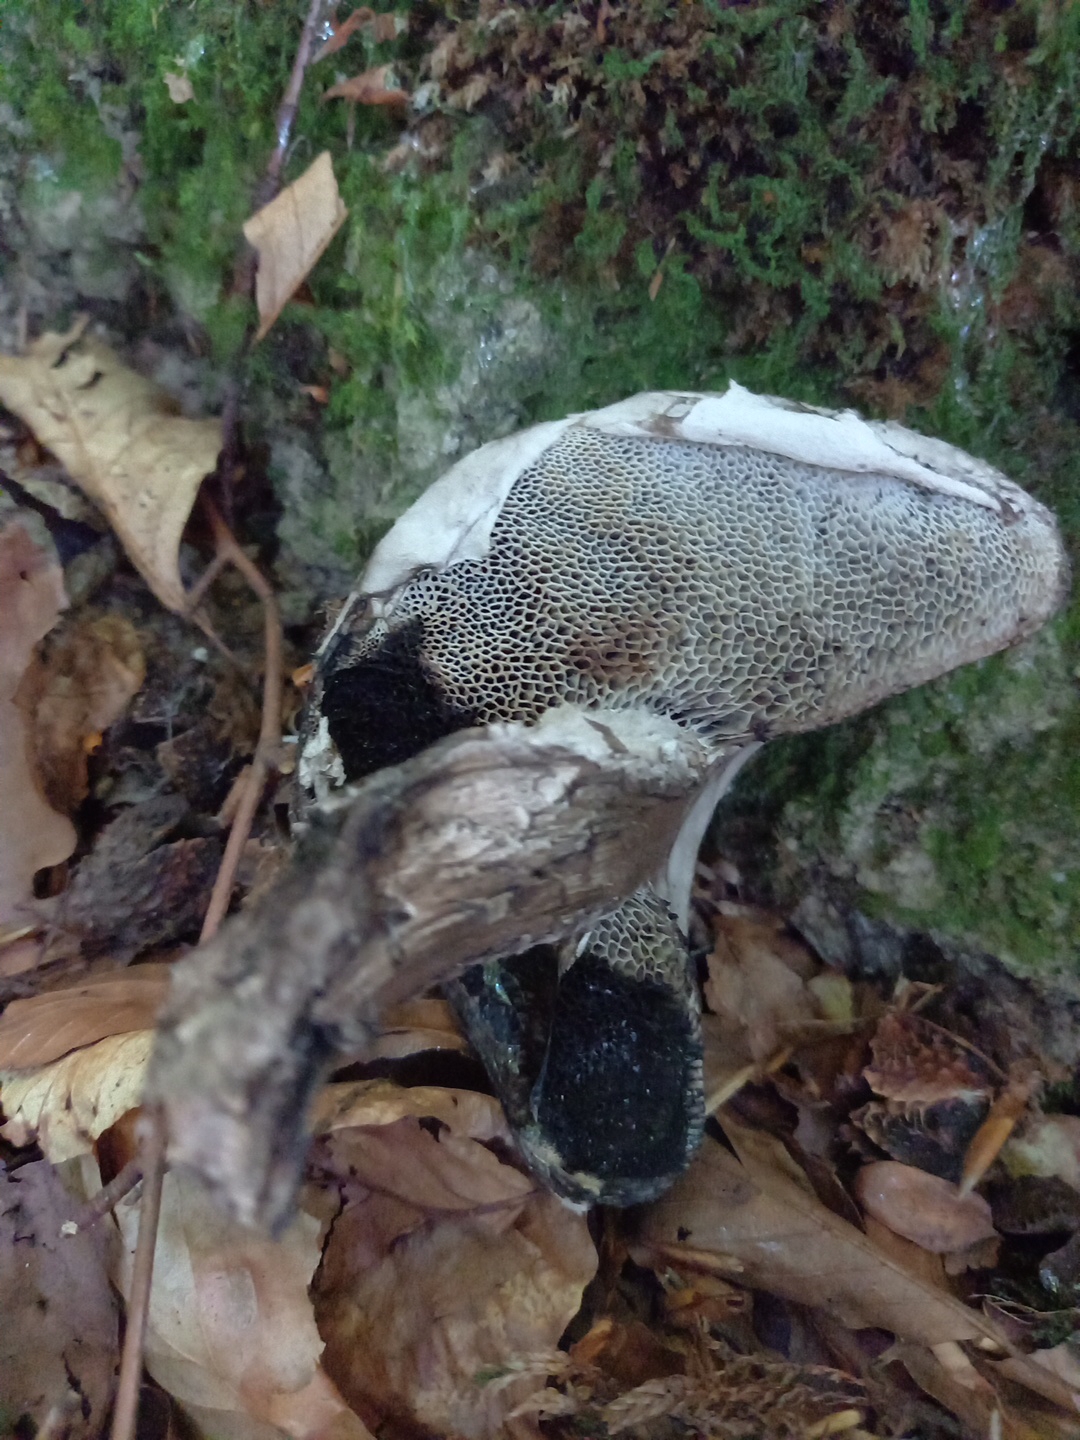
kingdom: Fungi
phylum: Basidiomycota
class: Agaricomycetes
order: Boletales
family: Boletaceae
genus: Strobilomyces
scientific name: Strobilomyces strobilaceus
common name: koglerørhat
